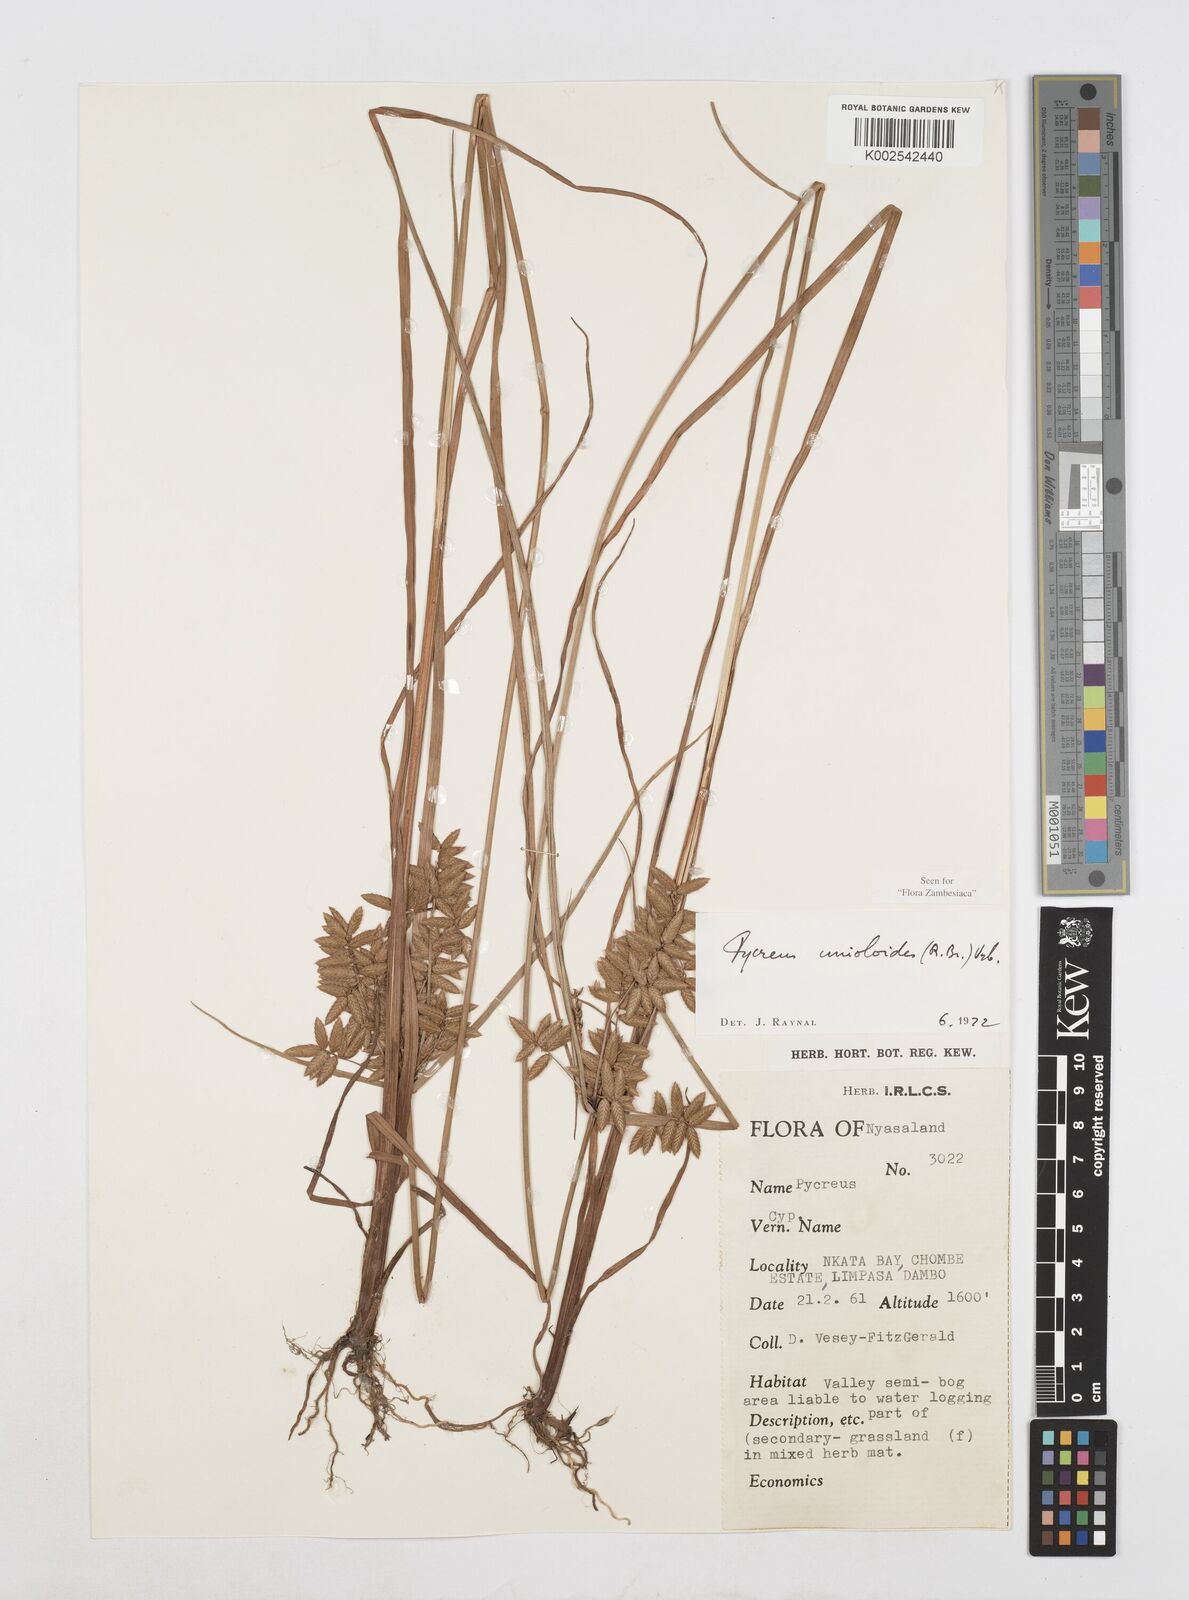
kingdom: Plantae
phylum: Tracheophyta
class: Liliopsida
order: Poales
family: Cyperaceae
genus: Cyperus
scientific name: Cyperus unioloides
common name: Uniola flatsedge
